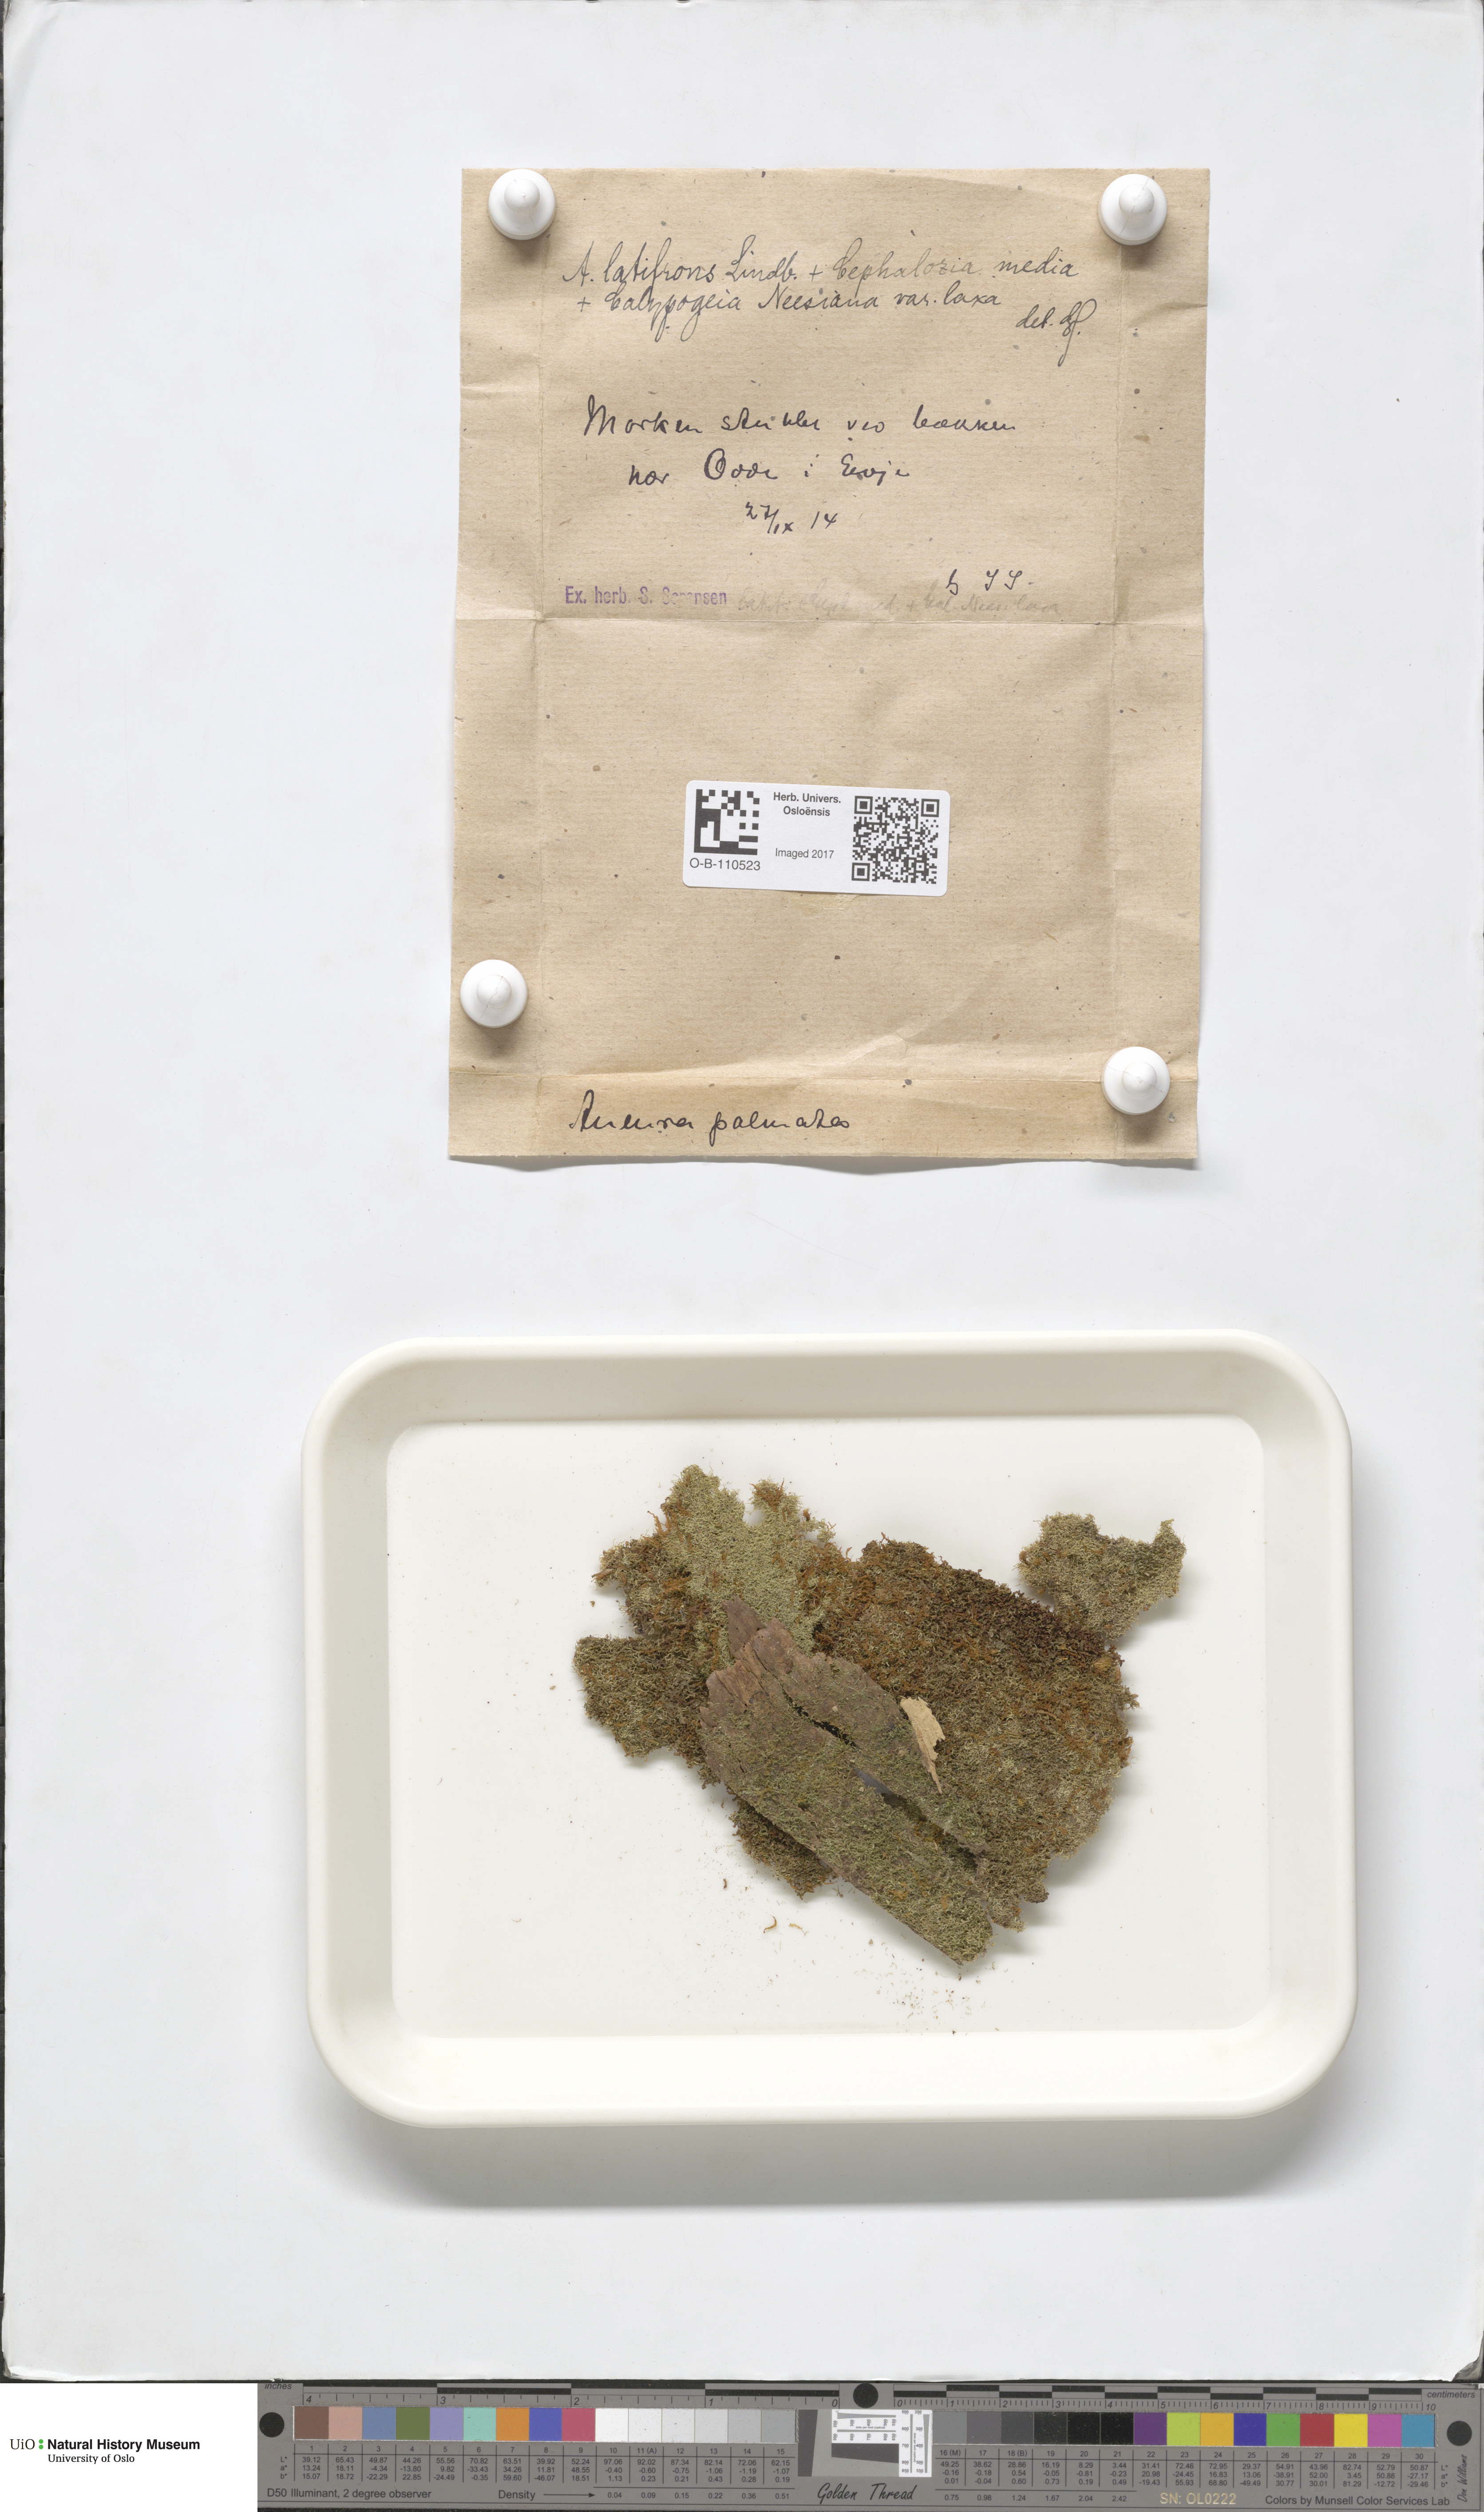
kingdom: Plantae
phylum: Marchantiophyta
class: Jungermanniopsida
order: Metzgeriales
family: Aneuraceae
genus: Riccardia
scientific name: Riccardia latifrons
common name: Bog germanderwort
